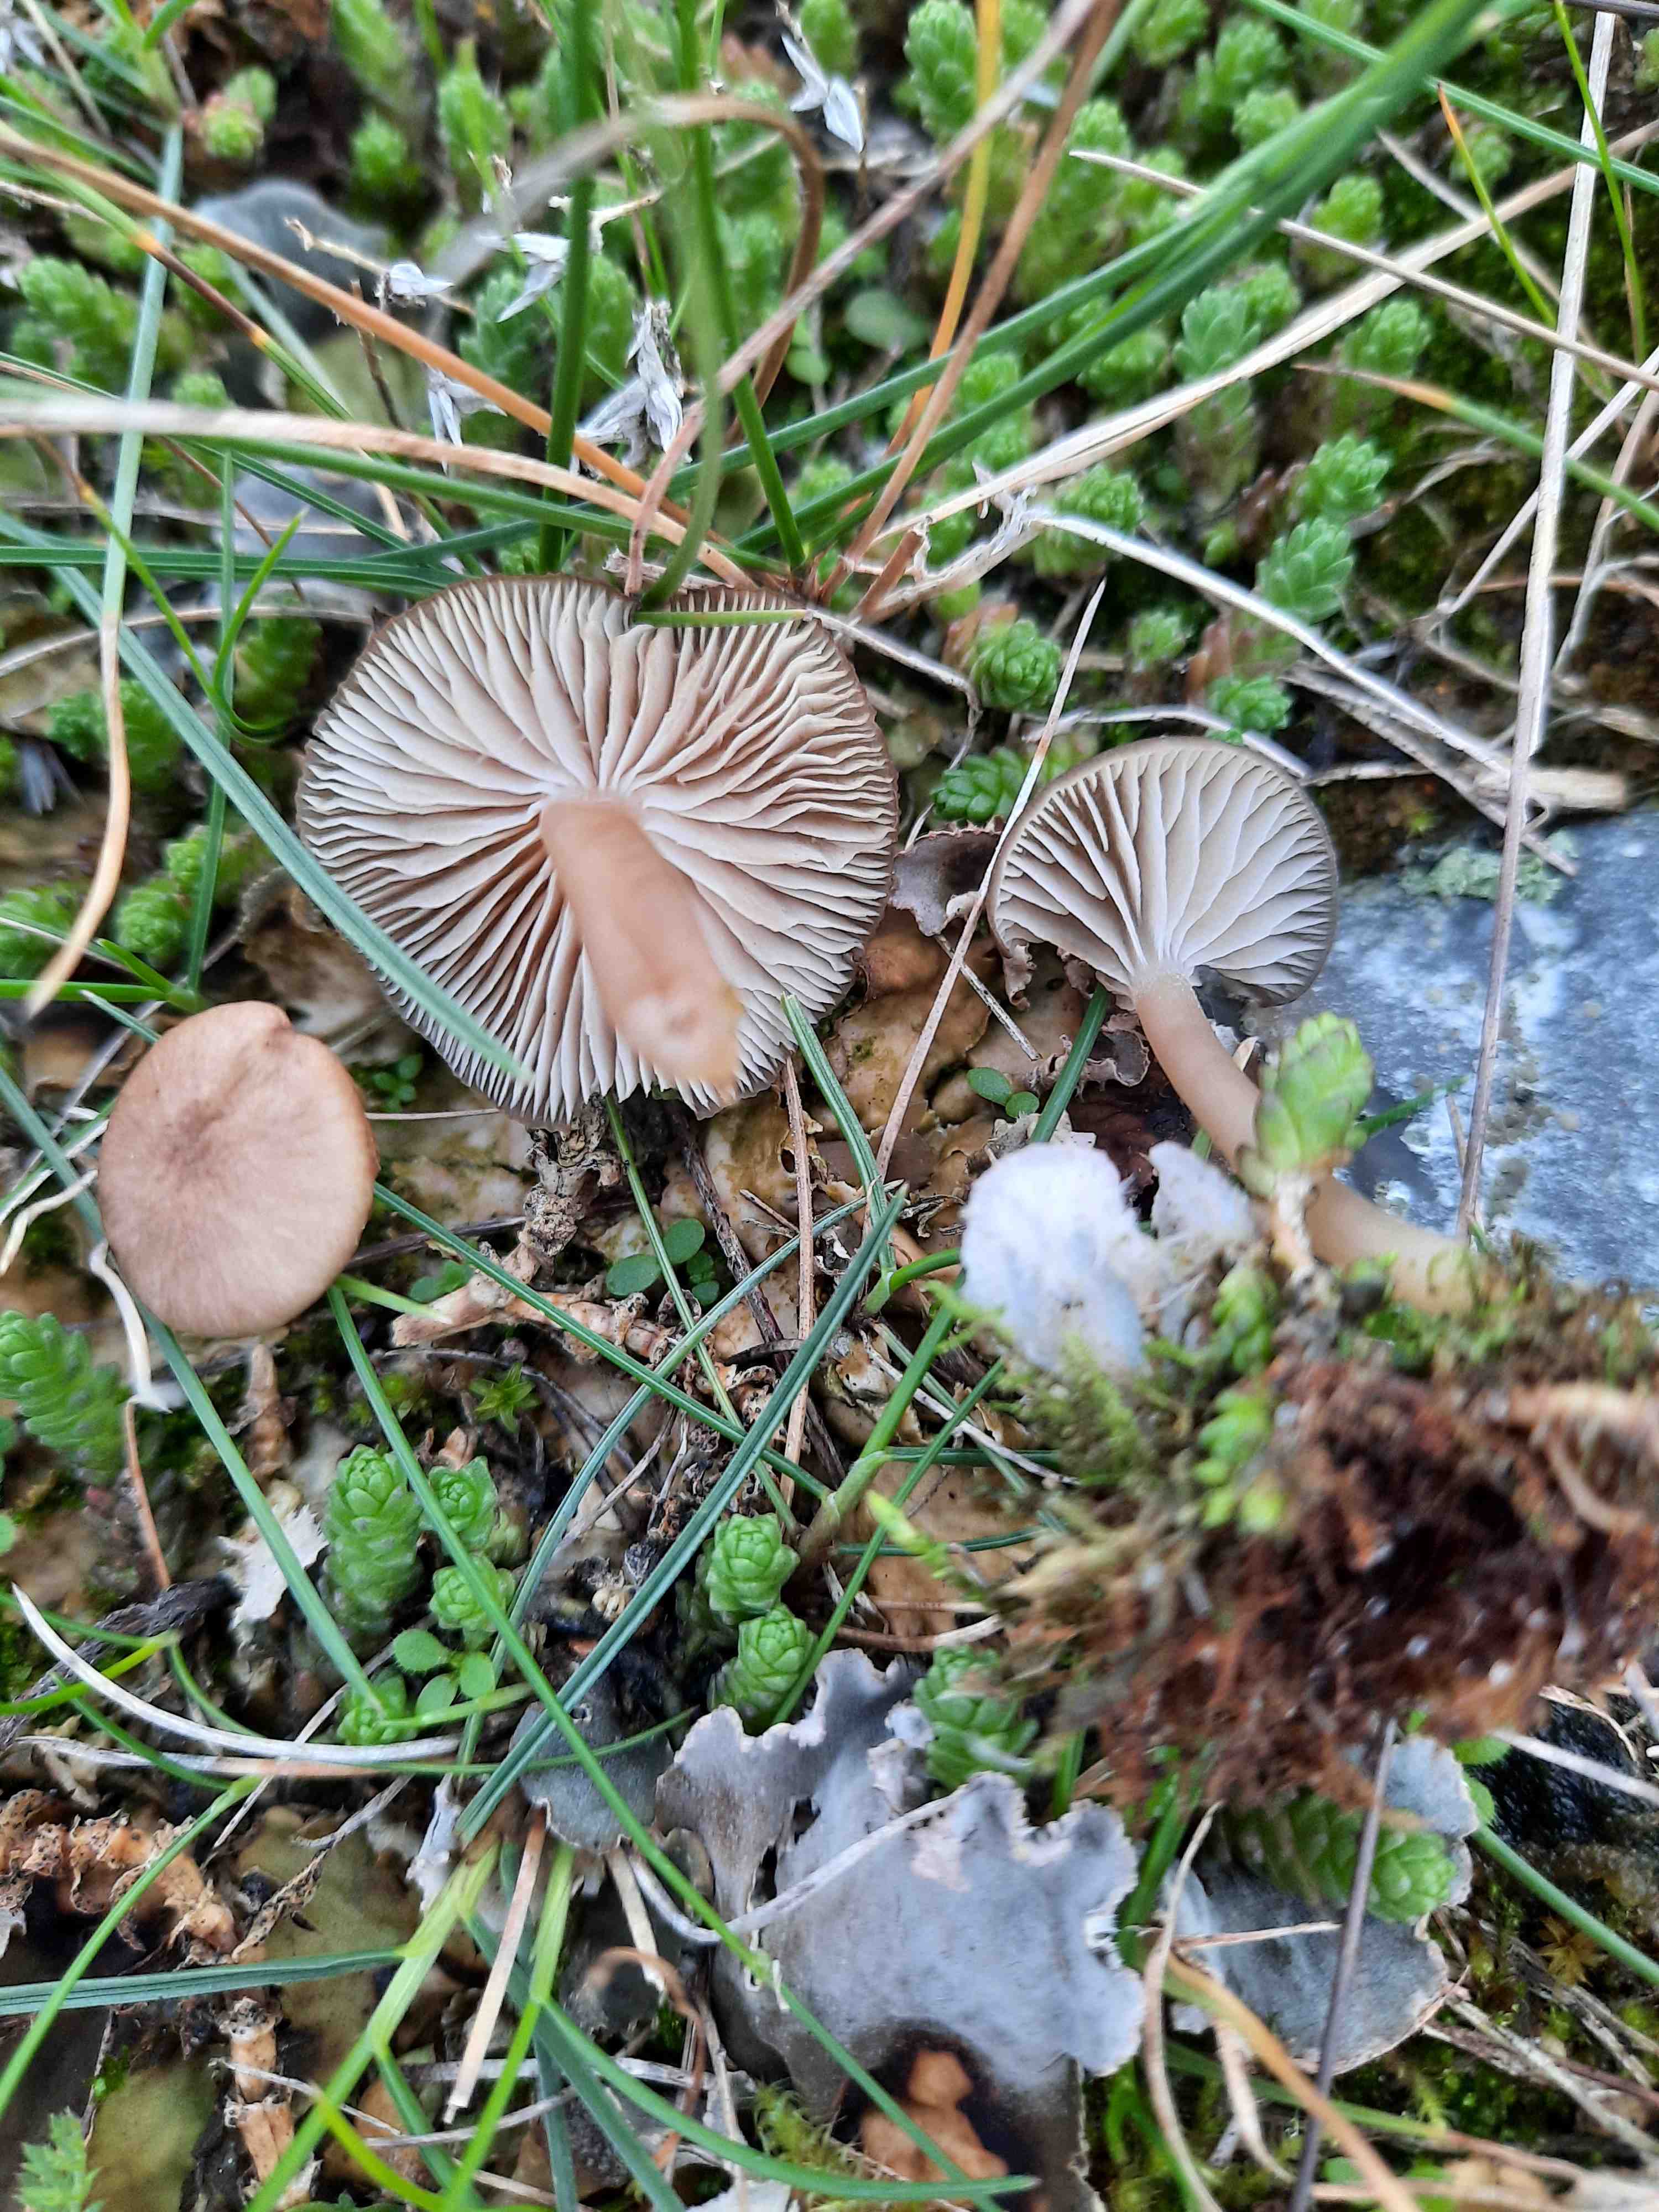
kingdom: Fungi
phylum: Basidiomycota
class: Agaricomycetes
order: Agaricales
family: Tricholomataceae
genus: Gamundia
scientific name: Gamundia xerophila
